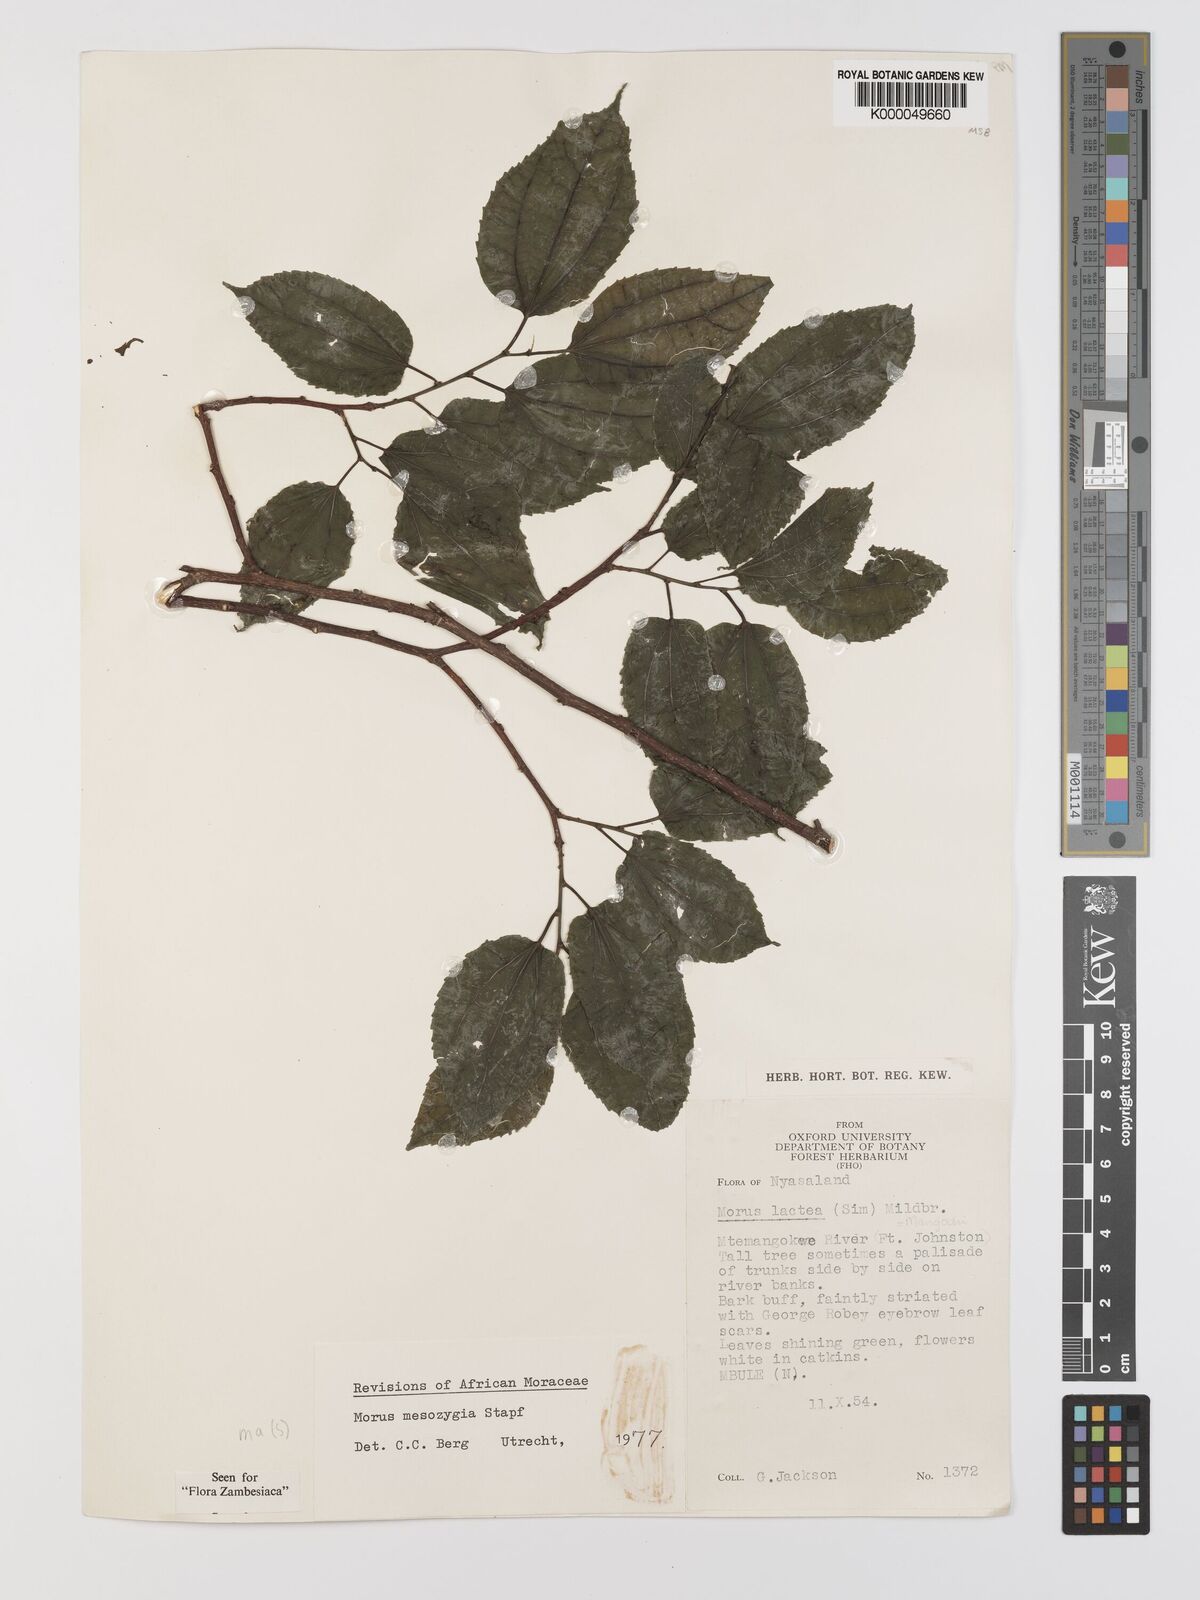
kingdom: Plantae
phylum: Tracheophyta
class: Magnoliopsida
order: Rosales
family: Moraceae
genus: Afromorus
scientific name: Afromorus mesozygia
